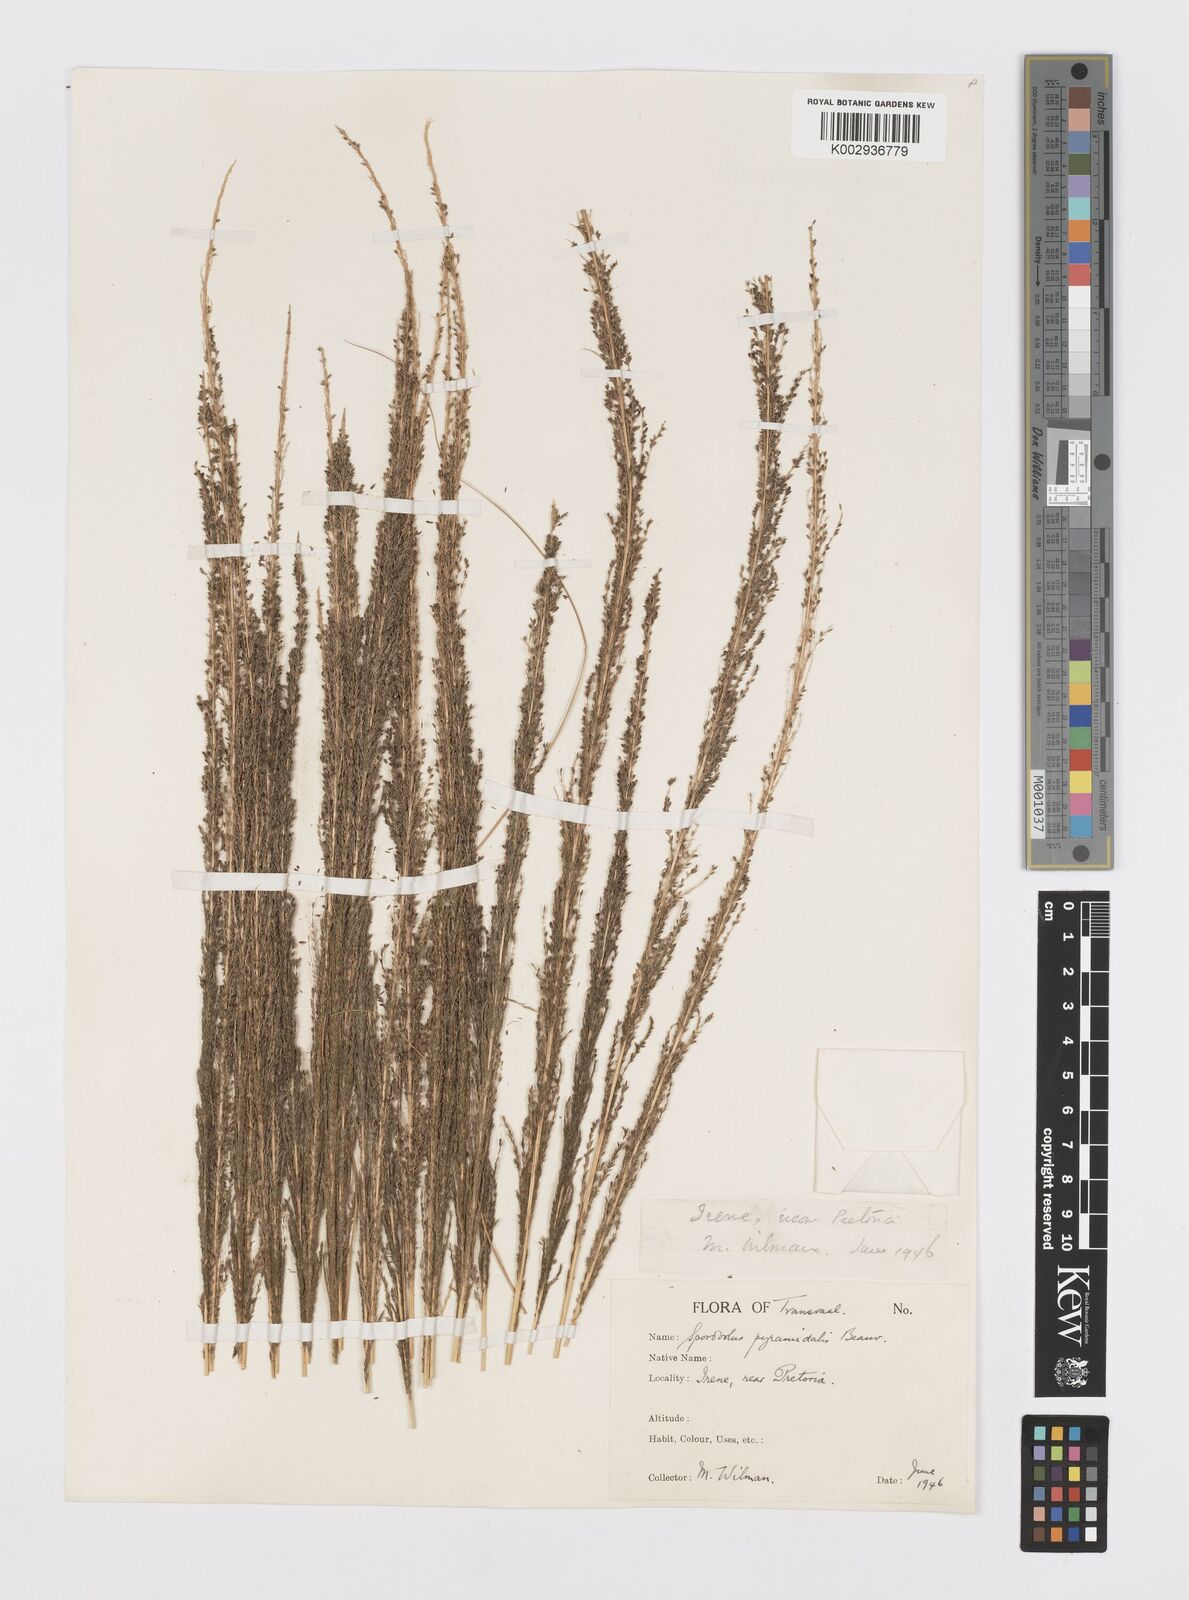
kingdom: Plantae
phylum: Tracheophyta
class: Liliopsida
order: Poales
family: Poaceae
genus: Sporobolus
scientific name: Sporobolus pyramidalis
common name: West indian dropseed
